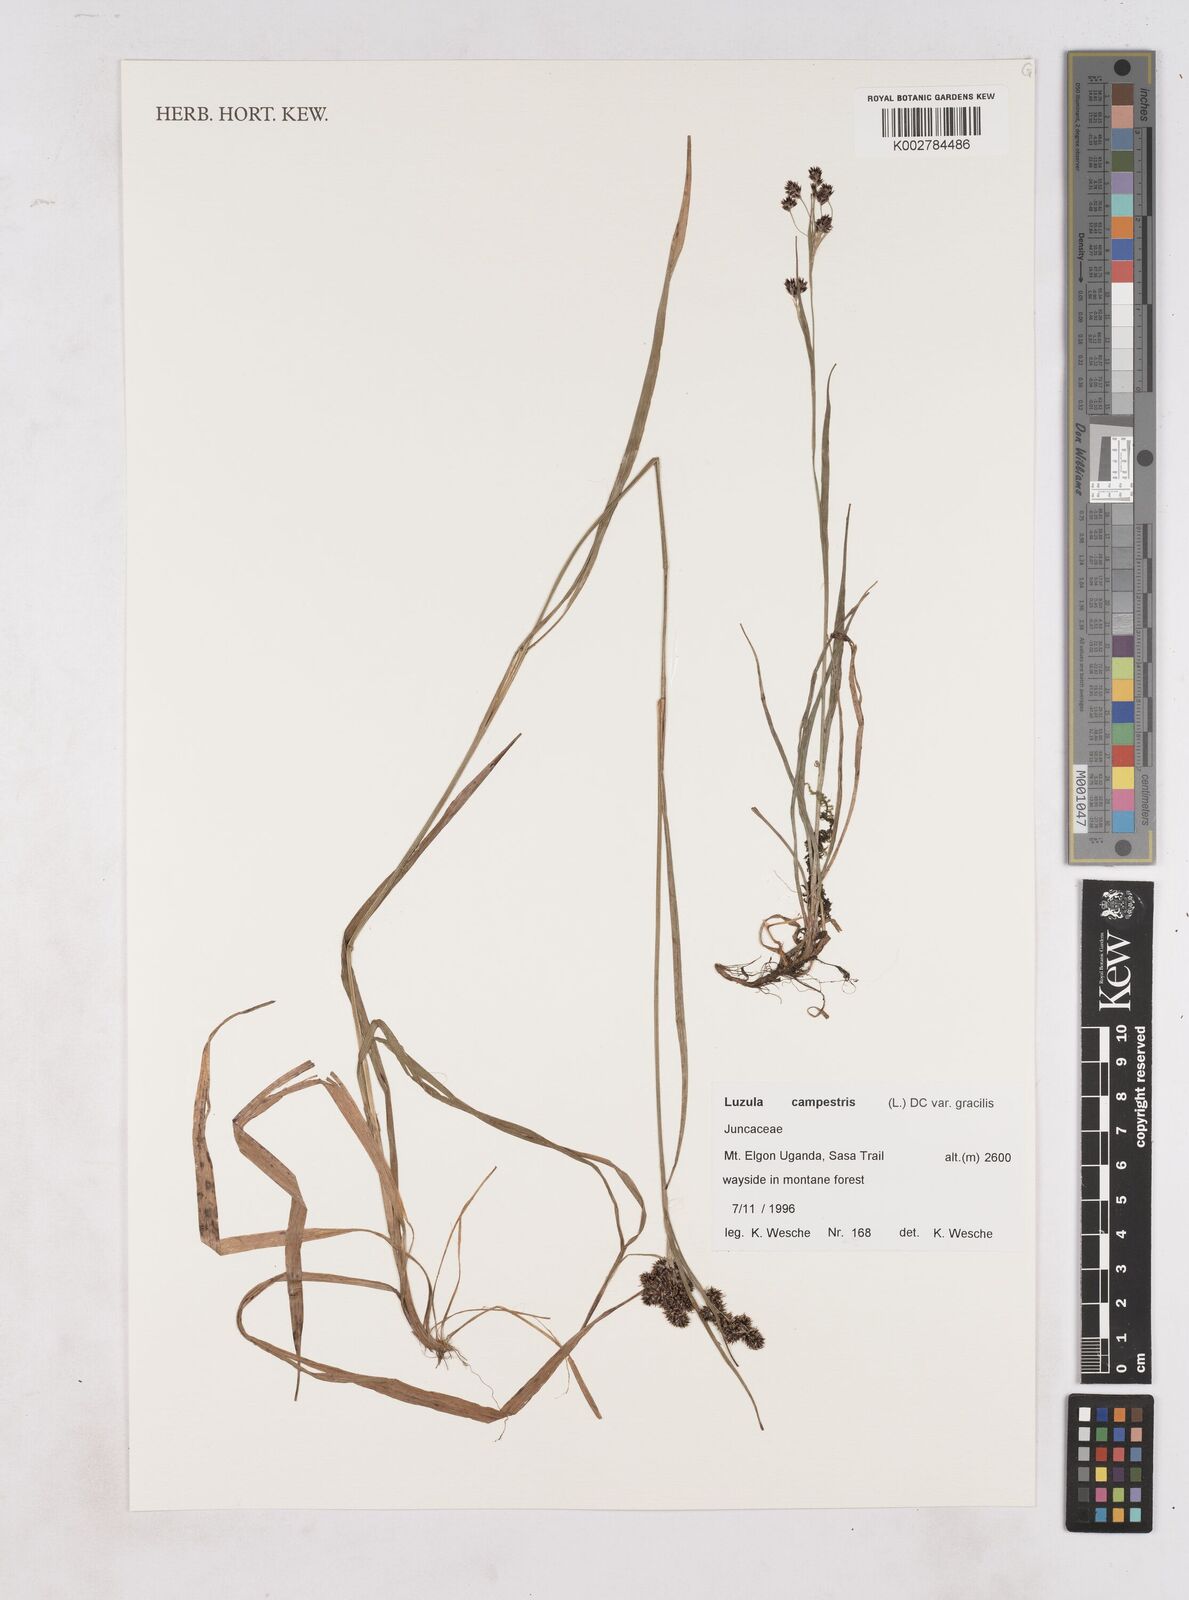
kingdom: Plantae
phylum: Tracheophyta
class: Liliopsida
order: Poales
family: Juncaceae
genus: Luzula
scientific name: Luzula
